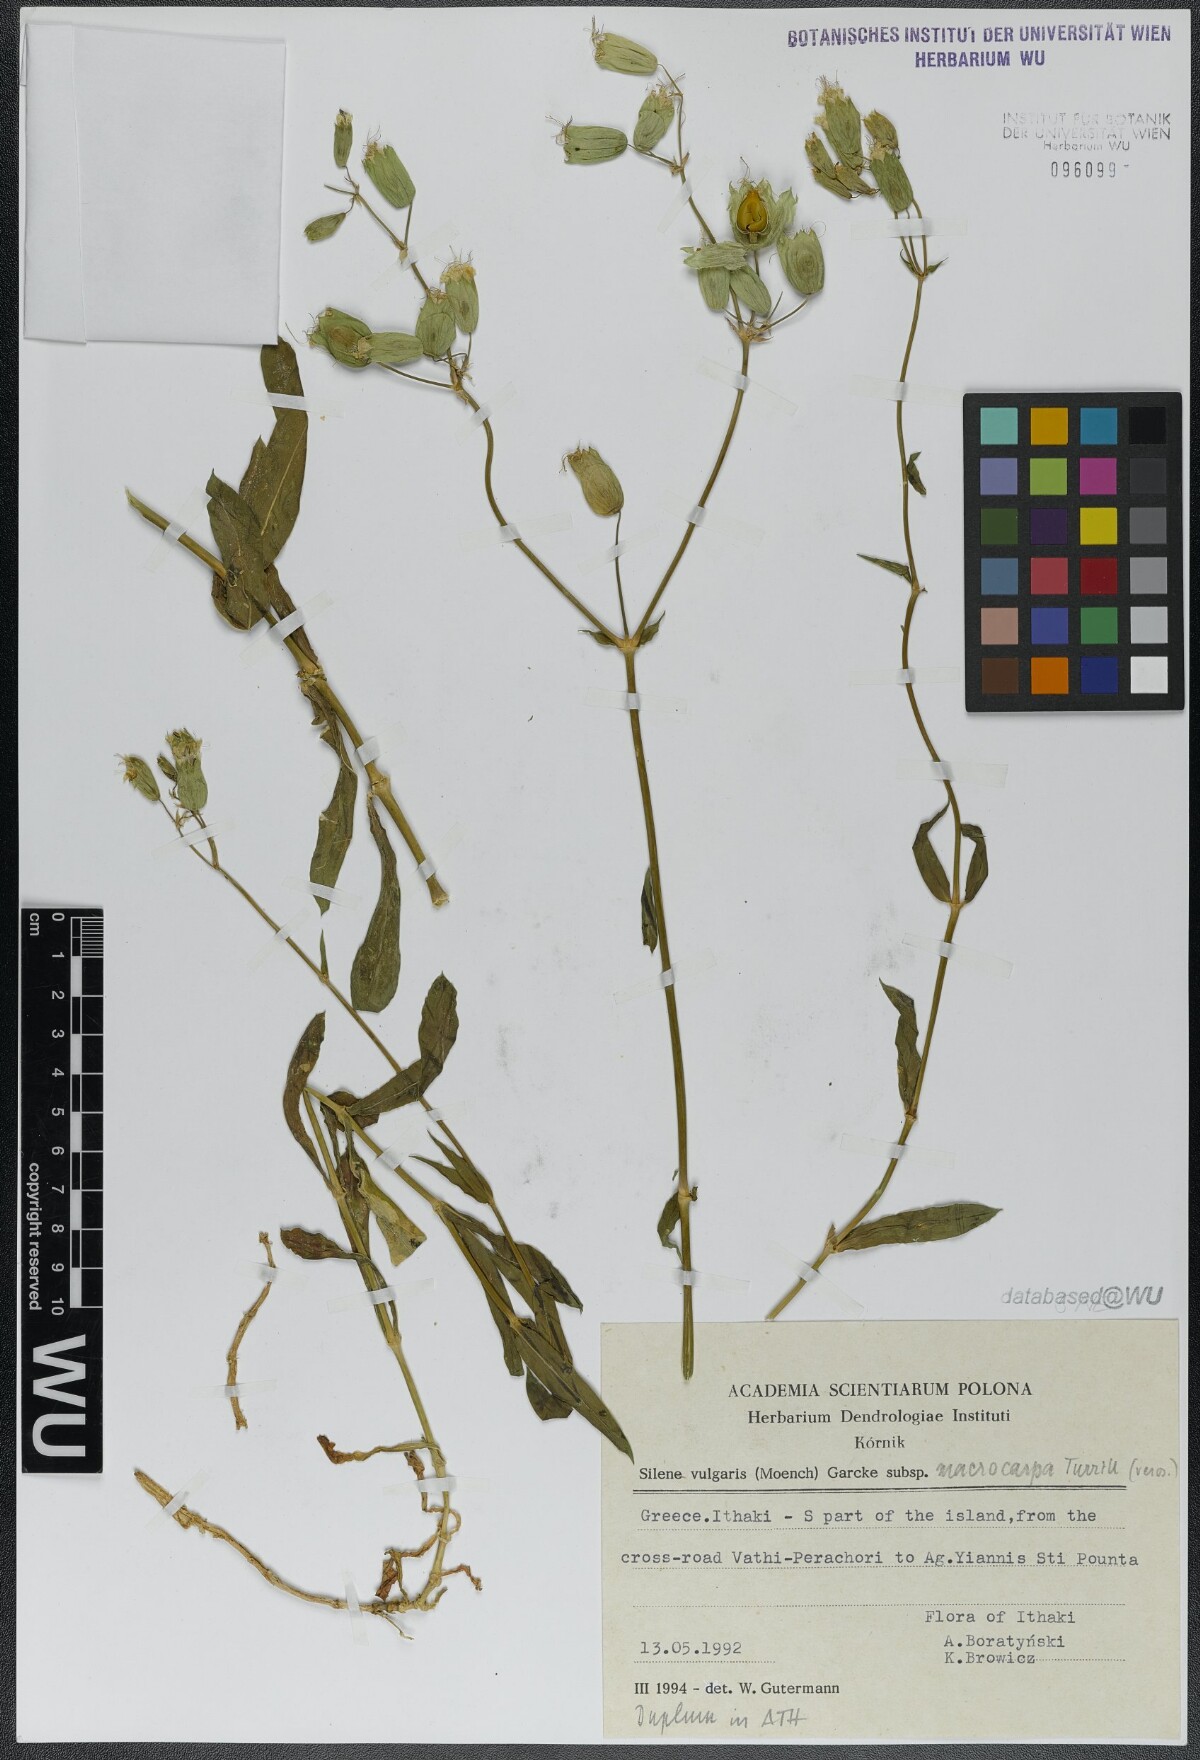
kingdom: Plantae
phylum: Tracheophyta
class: Magnoliopsida
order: Caryophyllales
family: Caryophyllaceae
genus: Silene
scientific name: Silene vulgaris
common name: Bladder campion
